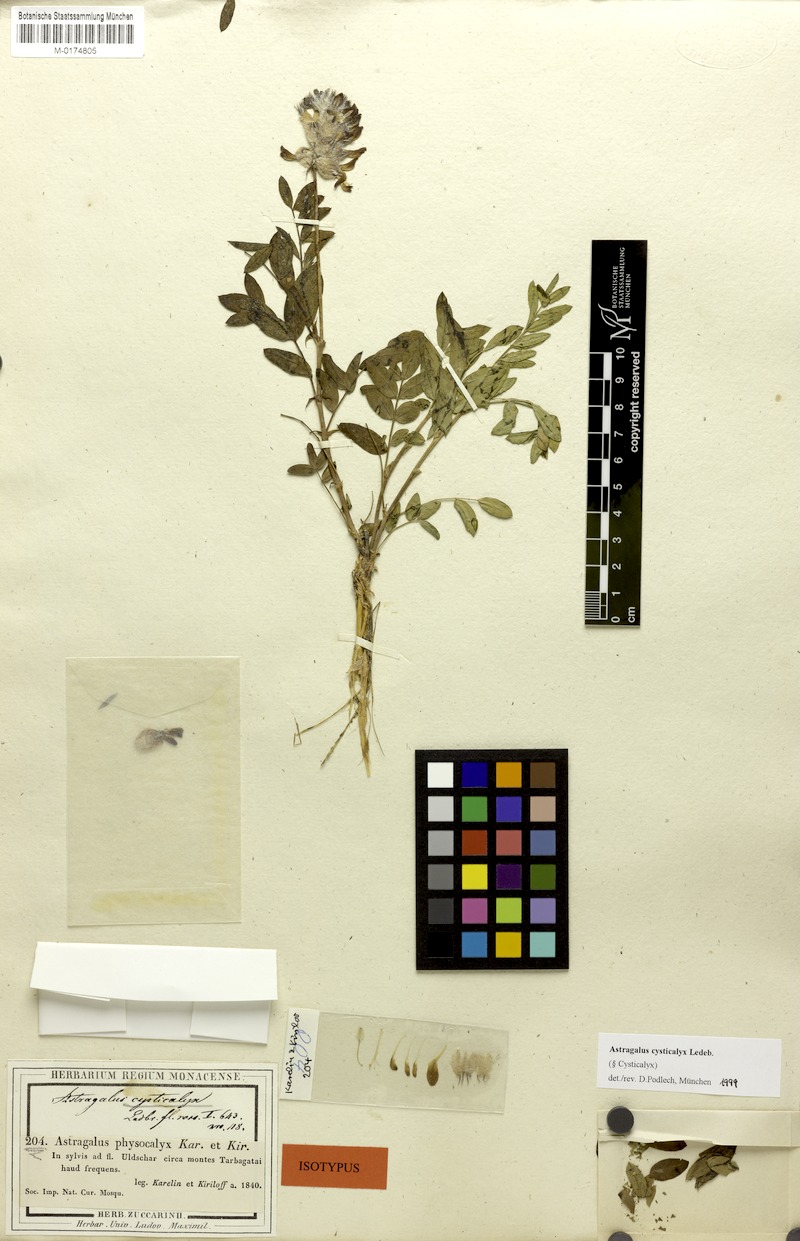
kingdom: Plantae
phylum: Tracheophyta
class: Magnoliopsida
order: Fabales
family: Fabaceae
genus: Astragalus
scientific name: Astragalus cysticalyx
